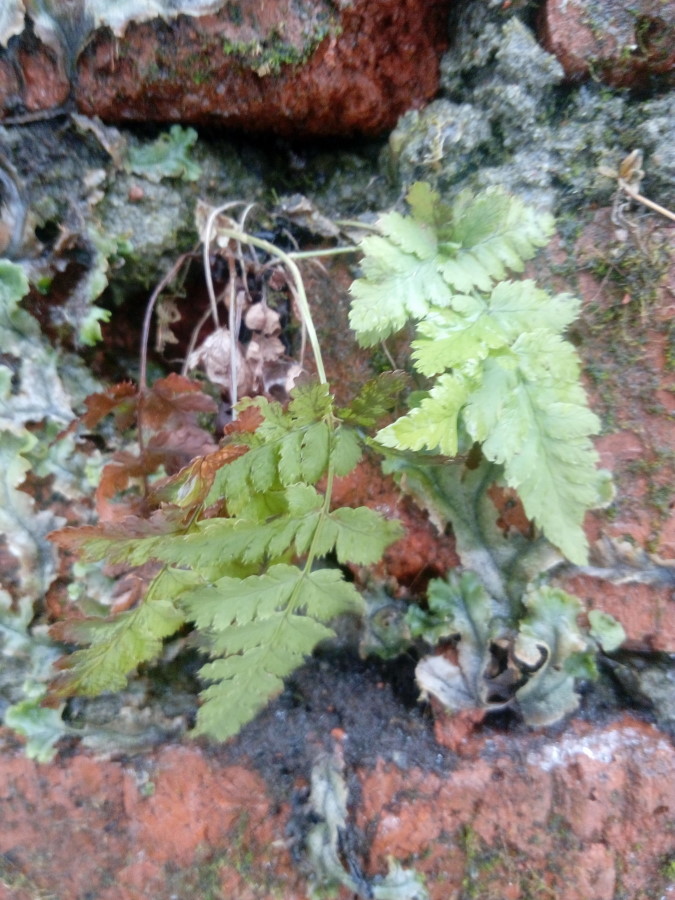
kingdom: Plantae
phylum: Tracheophyta
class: Polypodiopsida
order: Polypodiales
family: Dryopteridaceae
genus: Dryopteris
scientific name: Dryopteris carthusiana
